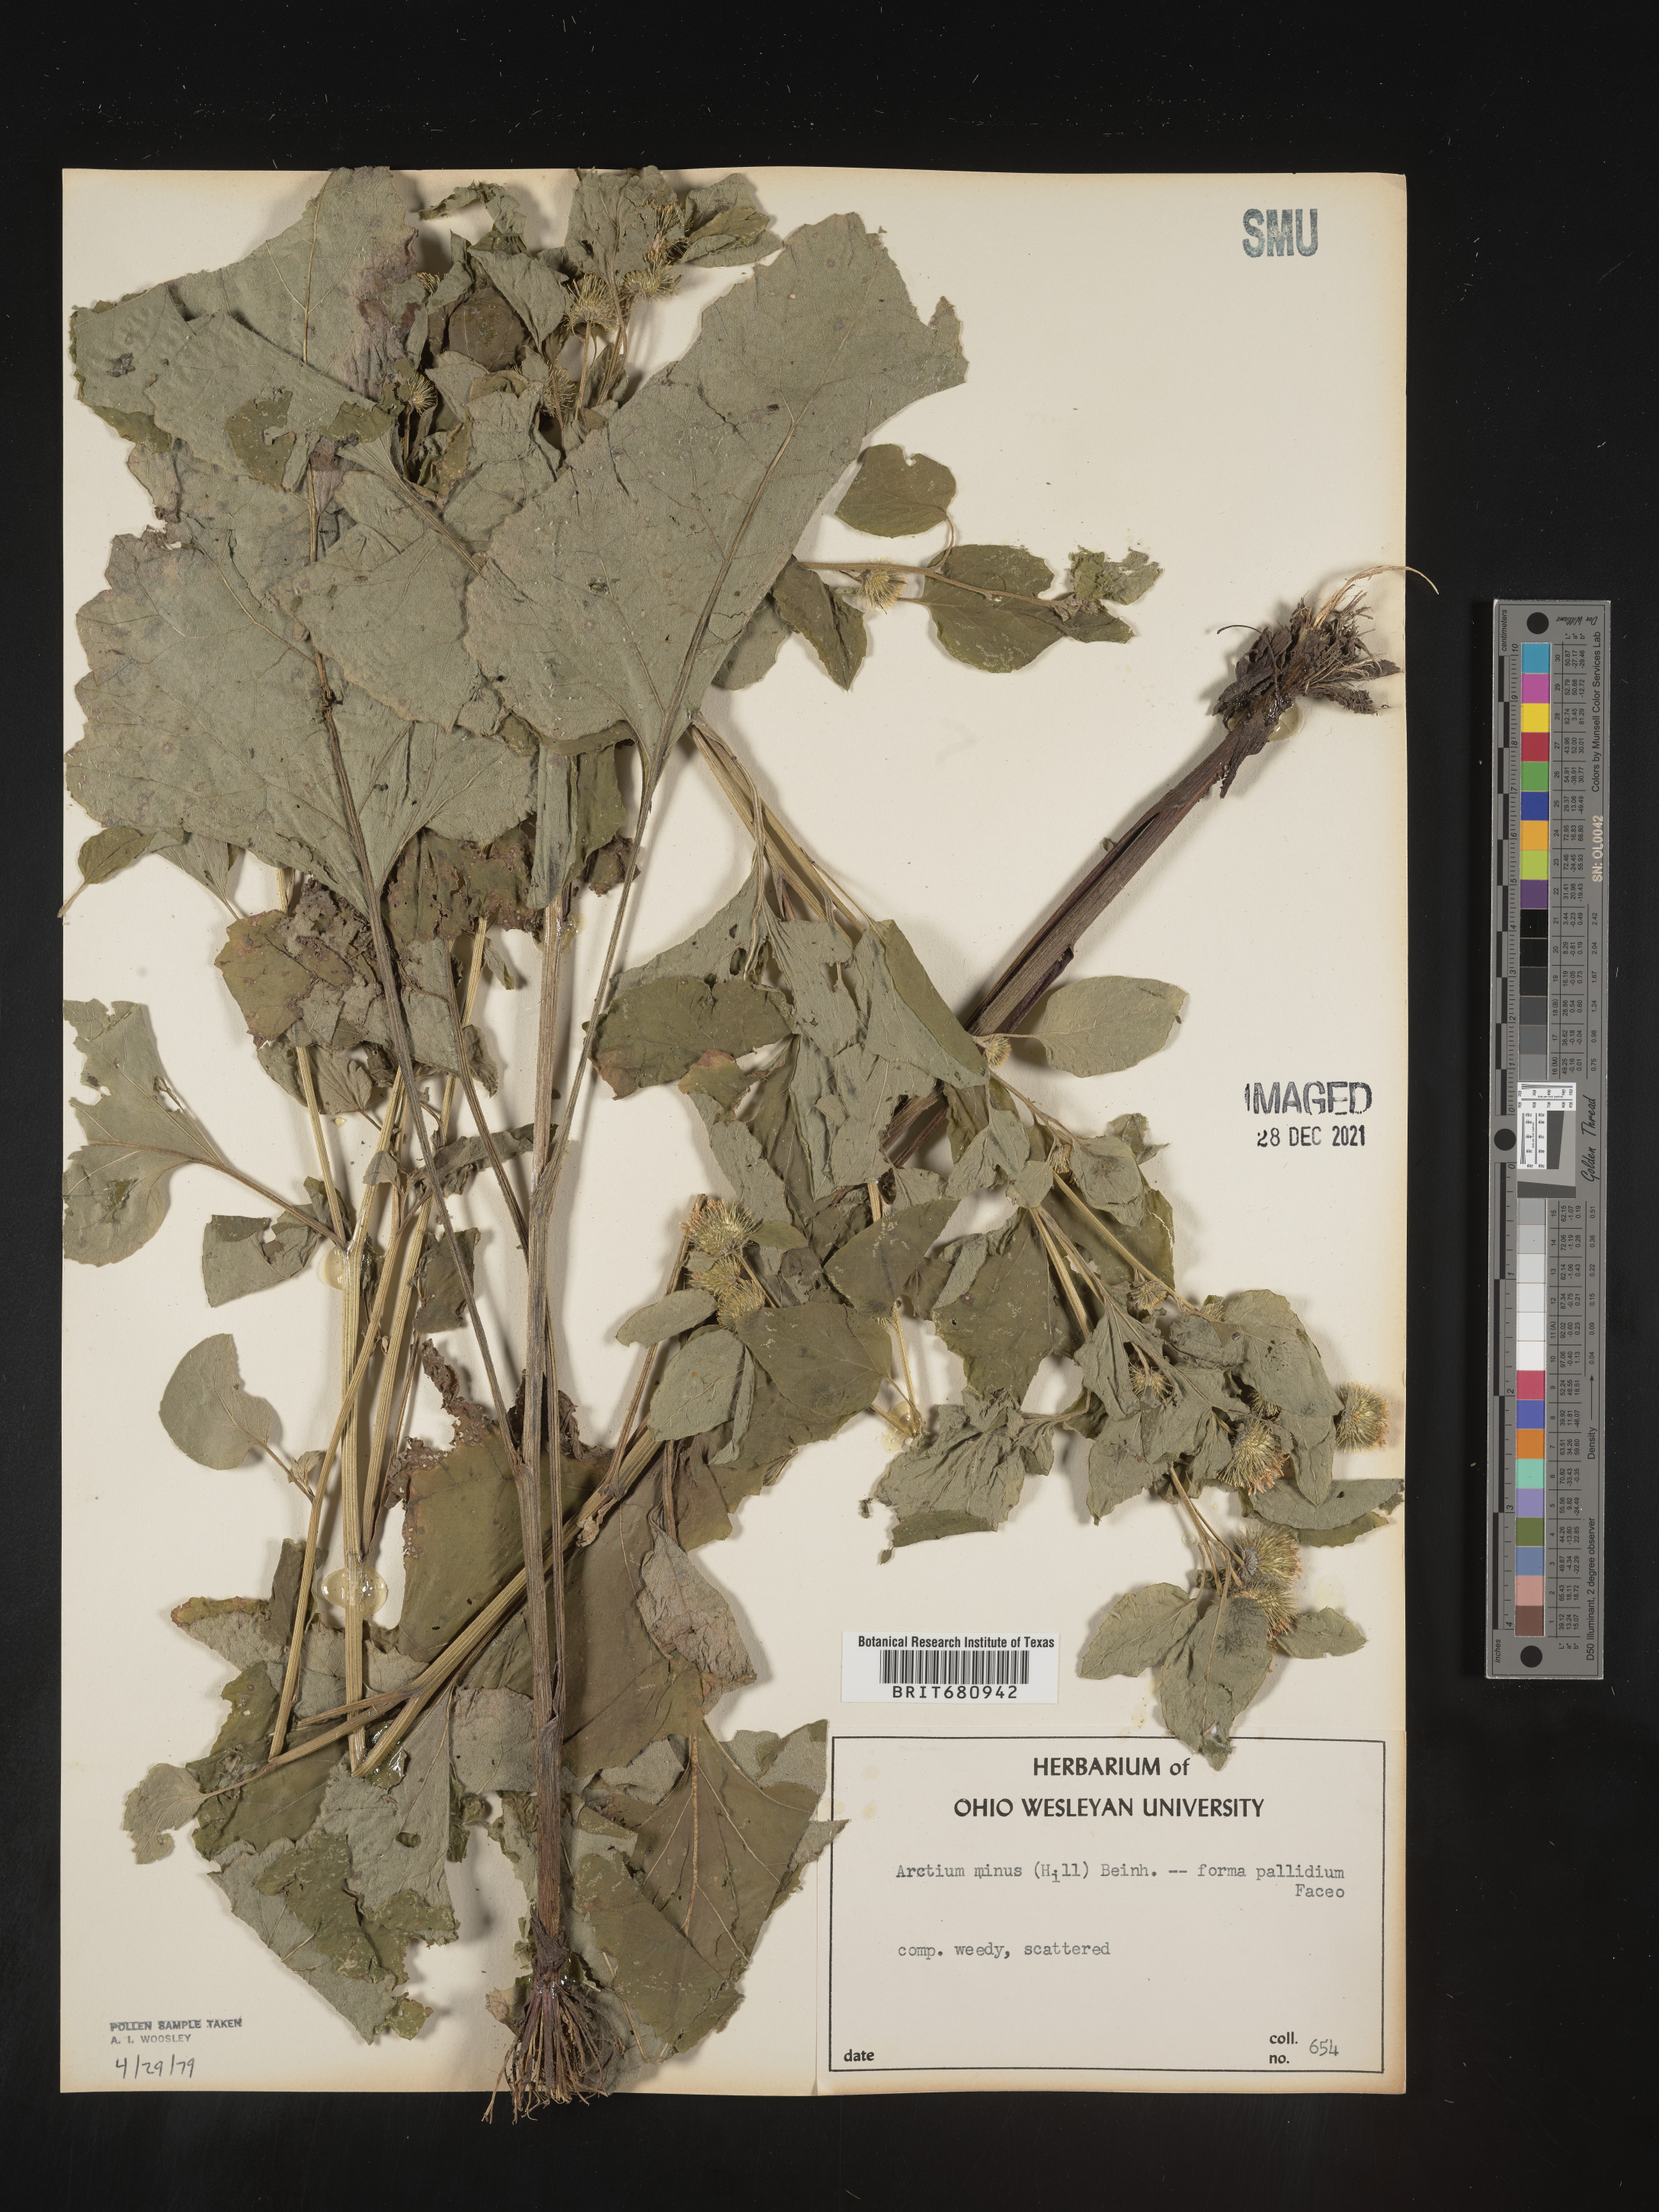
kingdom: Plantae
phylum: Tracheophyta
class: Magnoliopsida
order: Asterales
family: Asteraceae
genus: Arctium
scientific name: Arctium minus
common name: Lesser burdock
